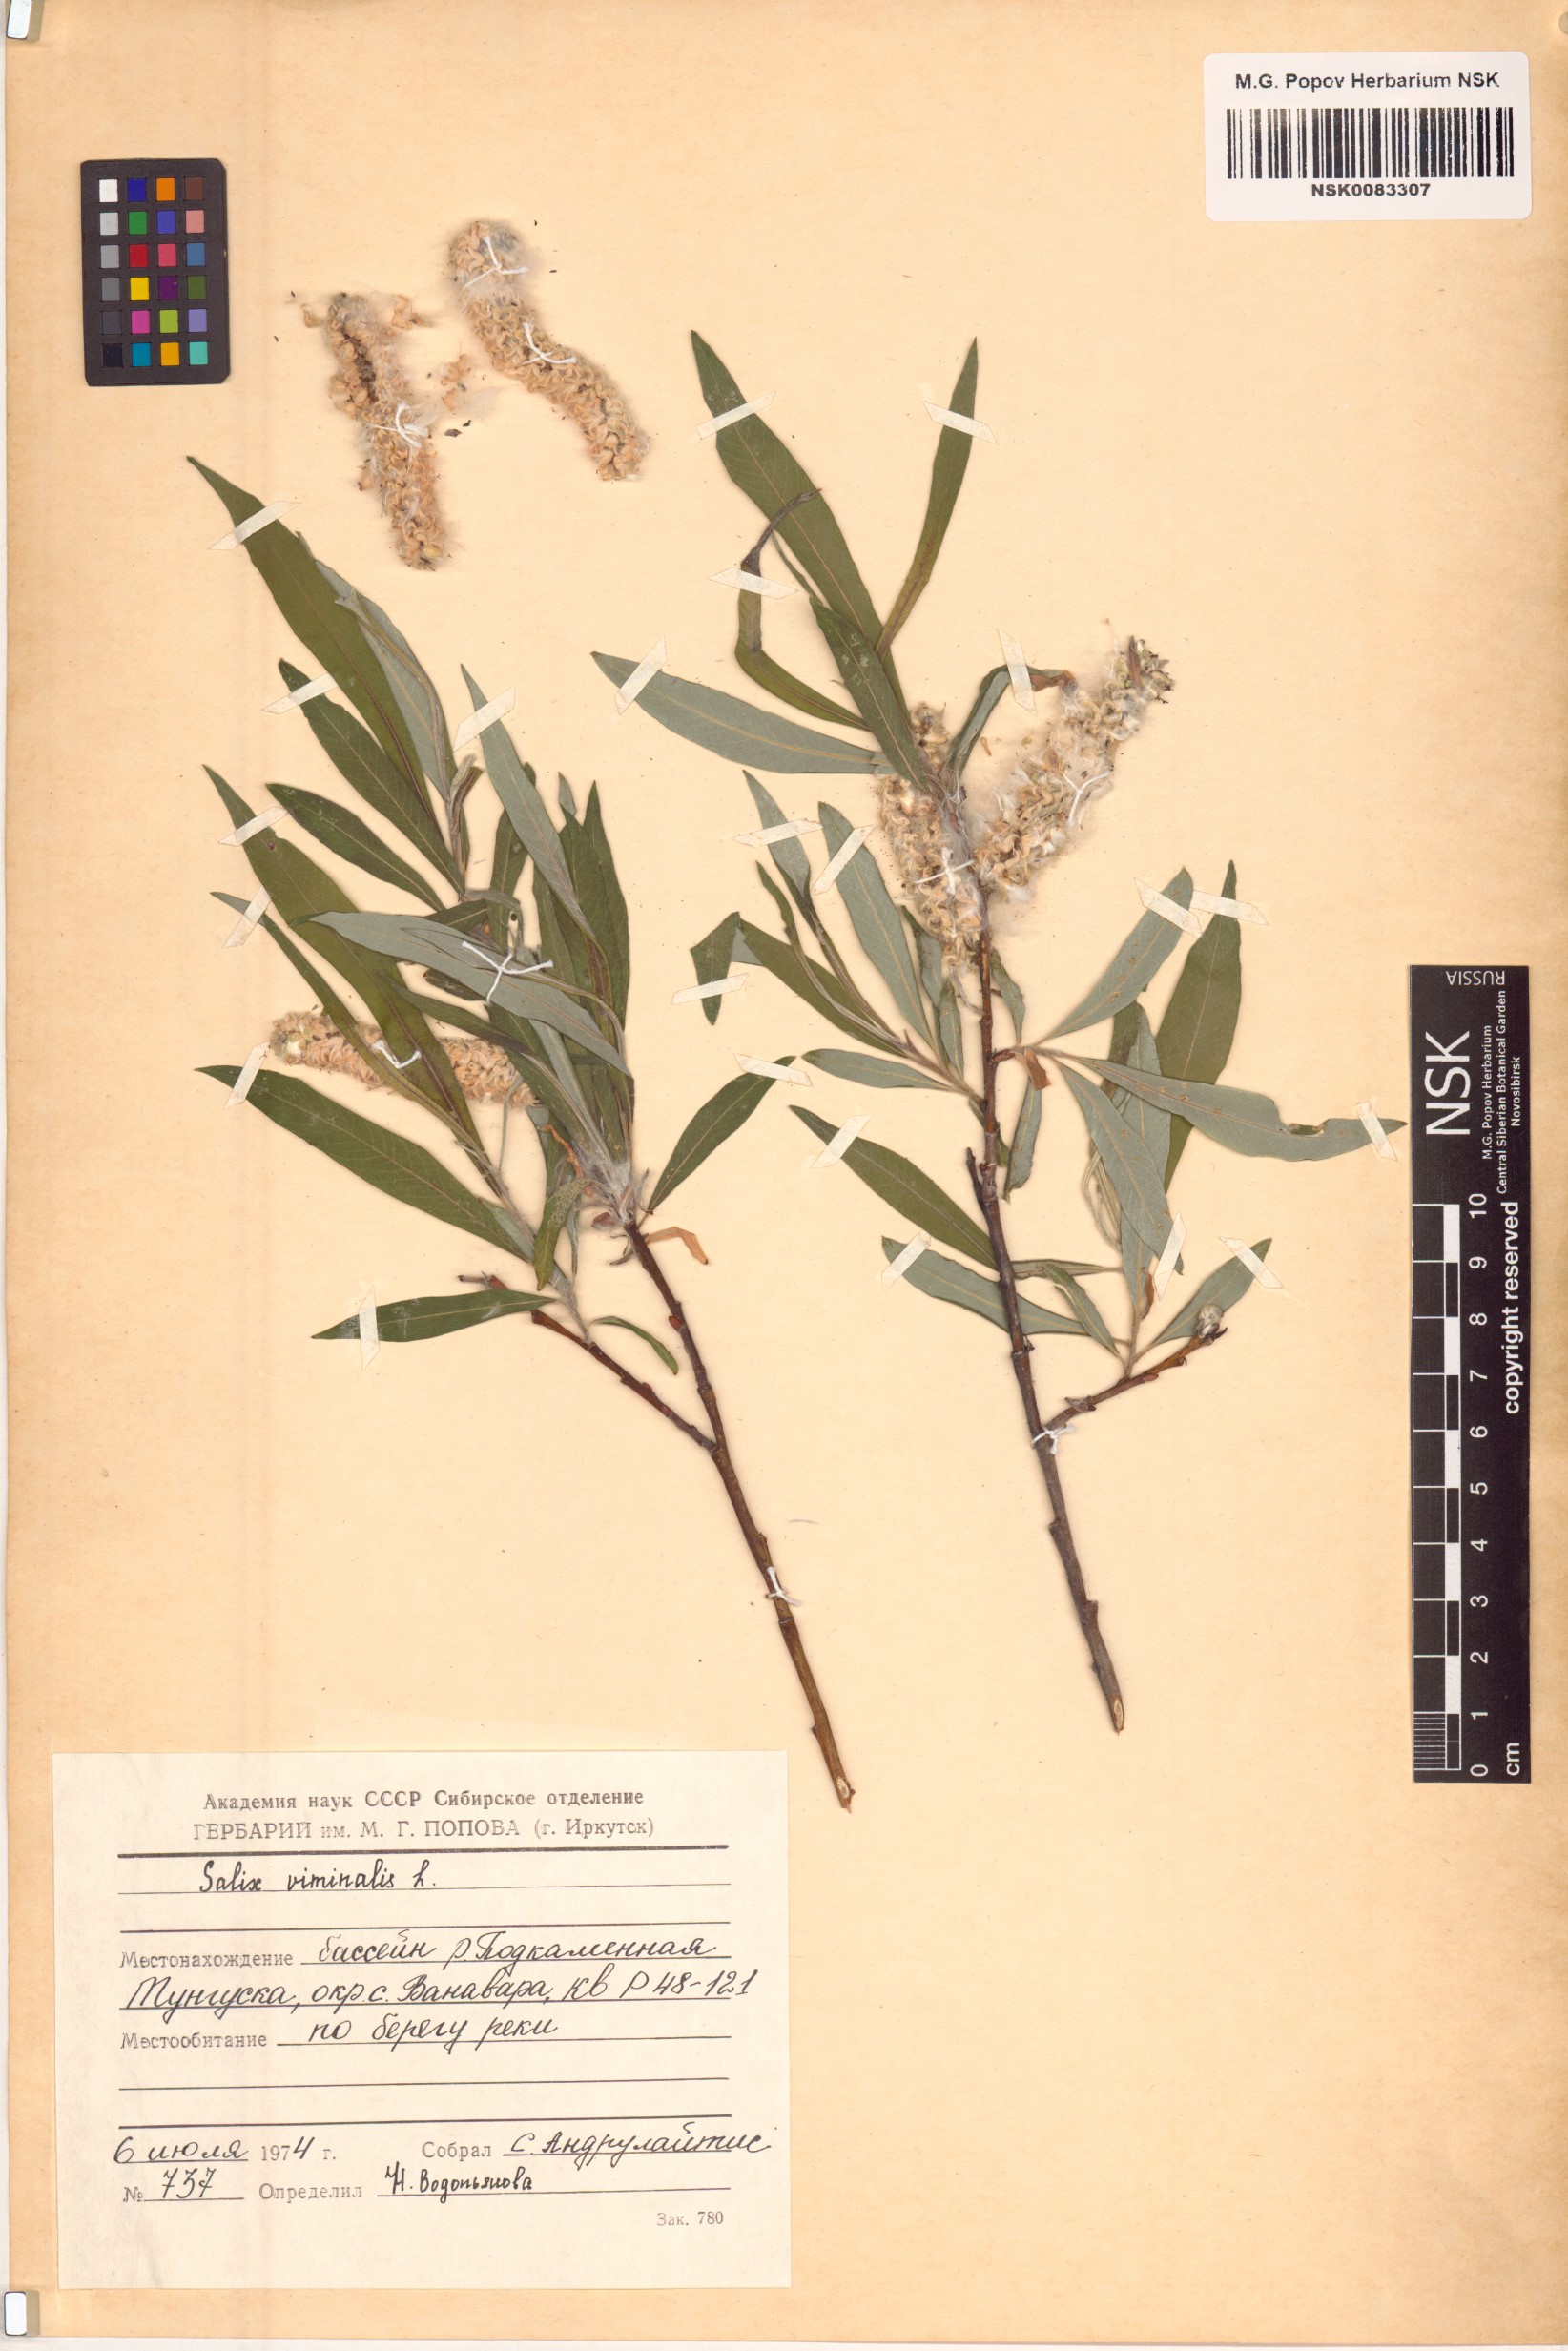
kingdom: Plantae
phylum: Tracheophyta
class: Magnoliopsida
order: Malpighiales
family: Salicaceae
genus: Salix
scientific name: Salix viminalis
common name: Osier
